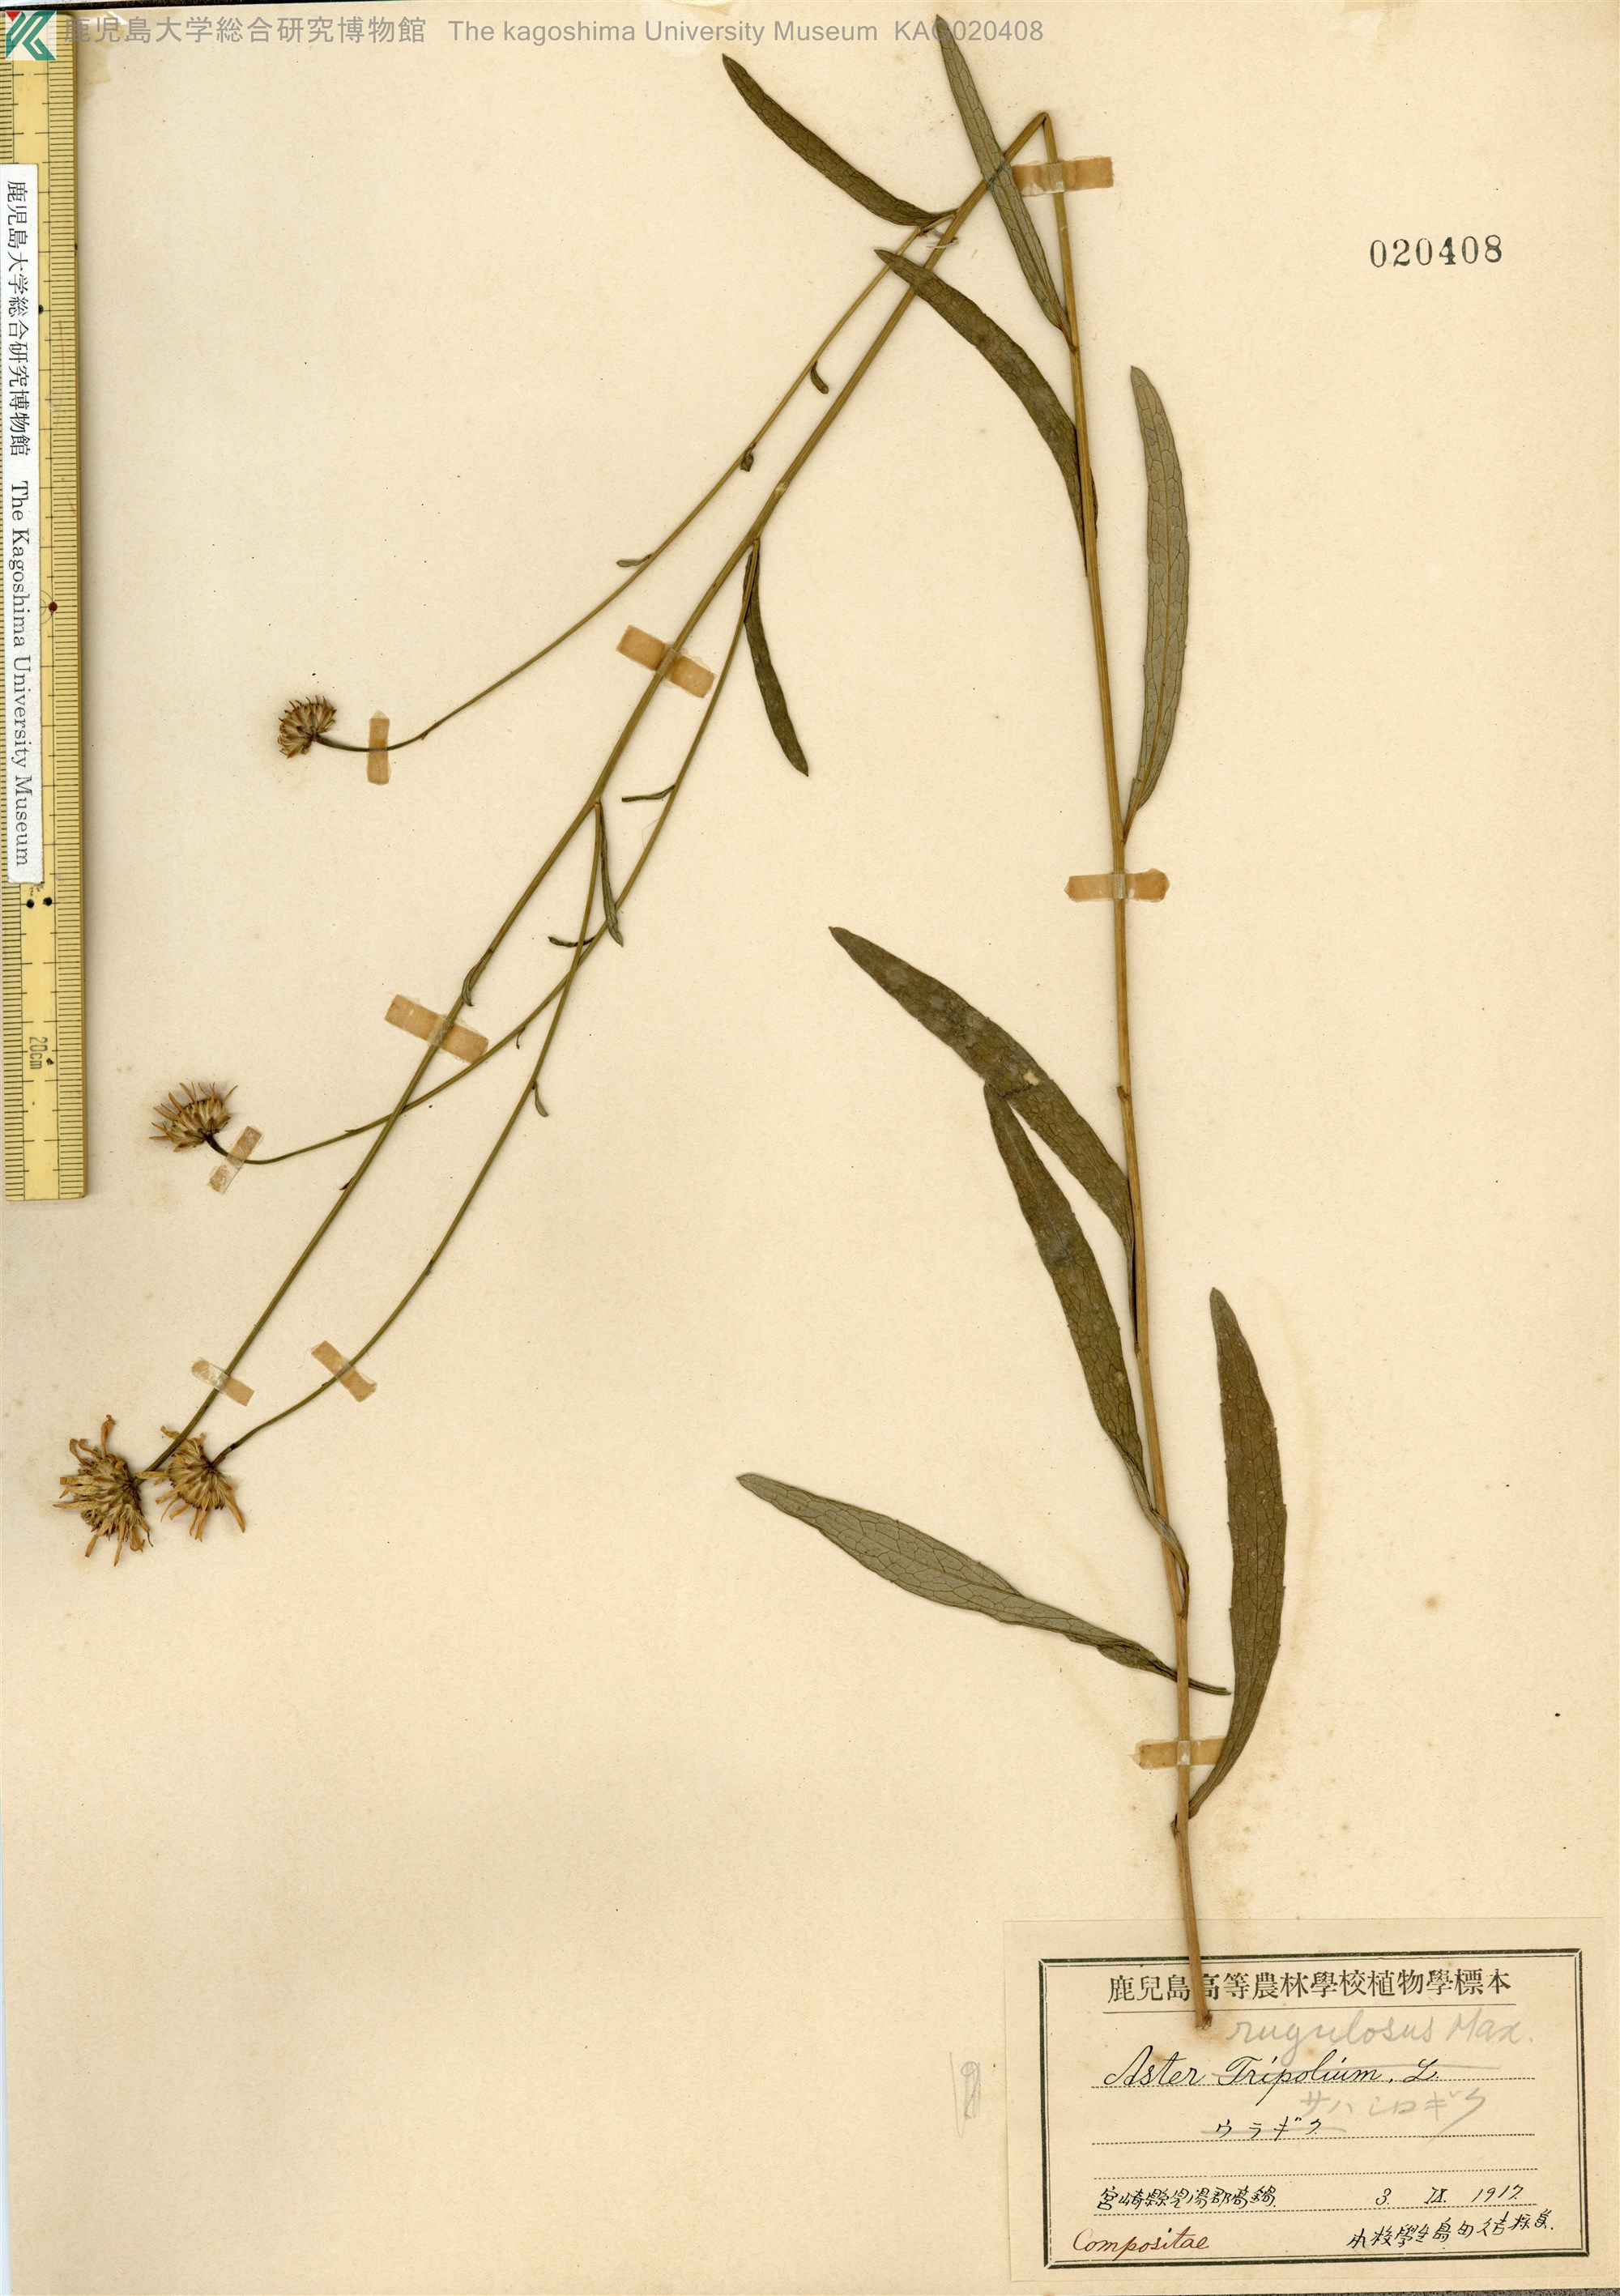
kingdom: Plantae
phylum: Tracheophyta
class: Magnoliopsida
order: Asterales
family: Asteraceae
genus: Cardiagyris
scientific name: Cardiagyris rugulosa
